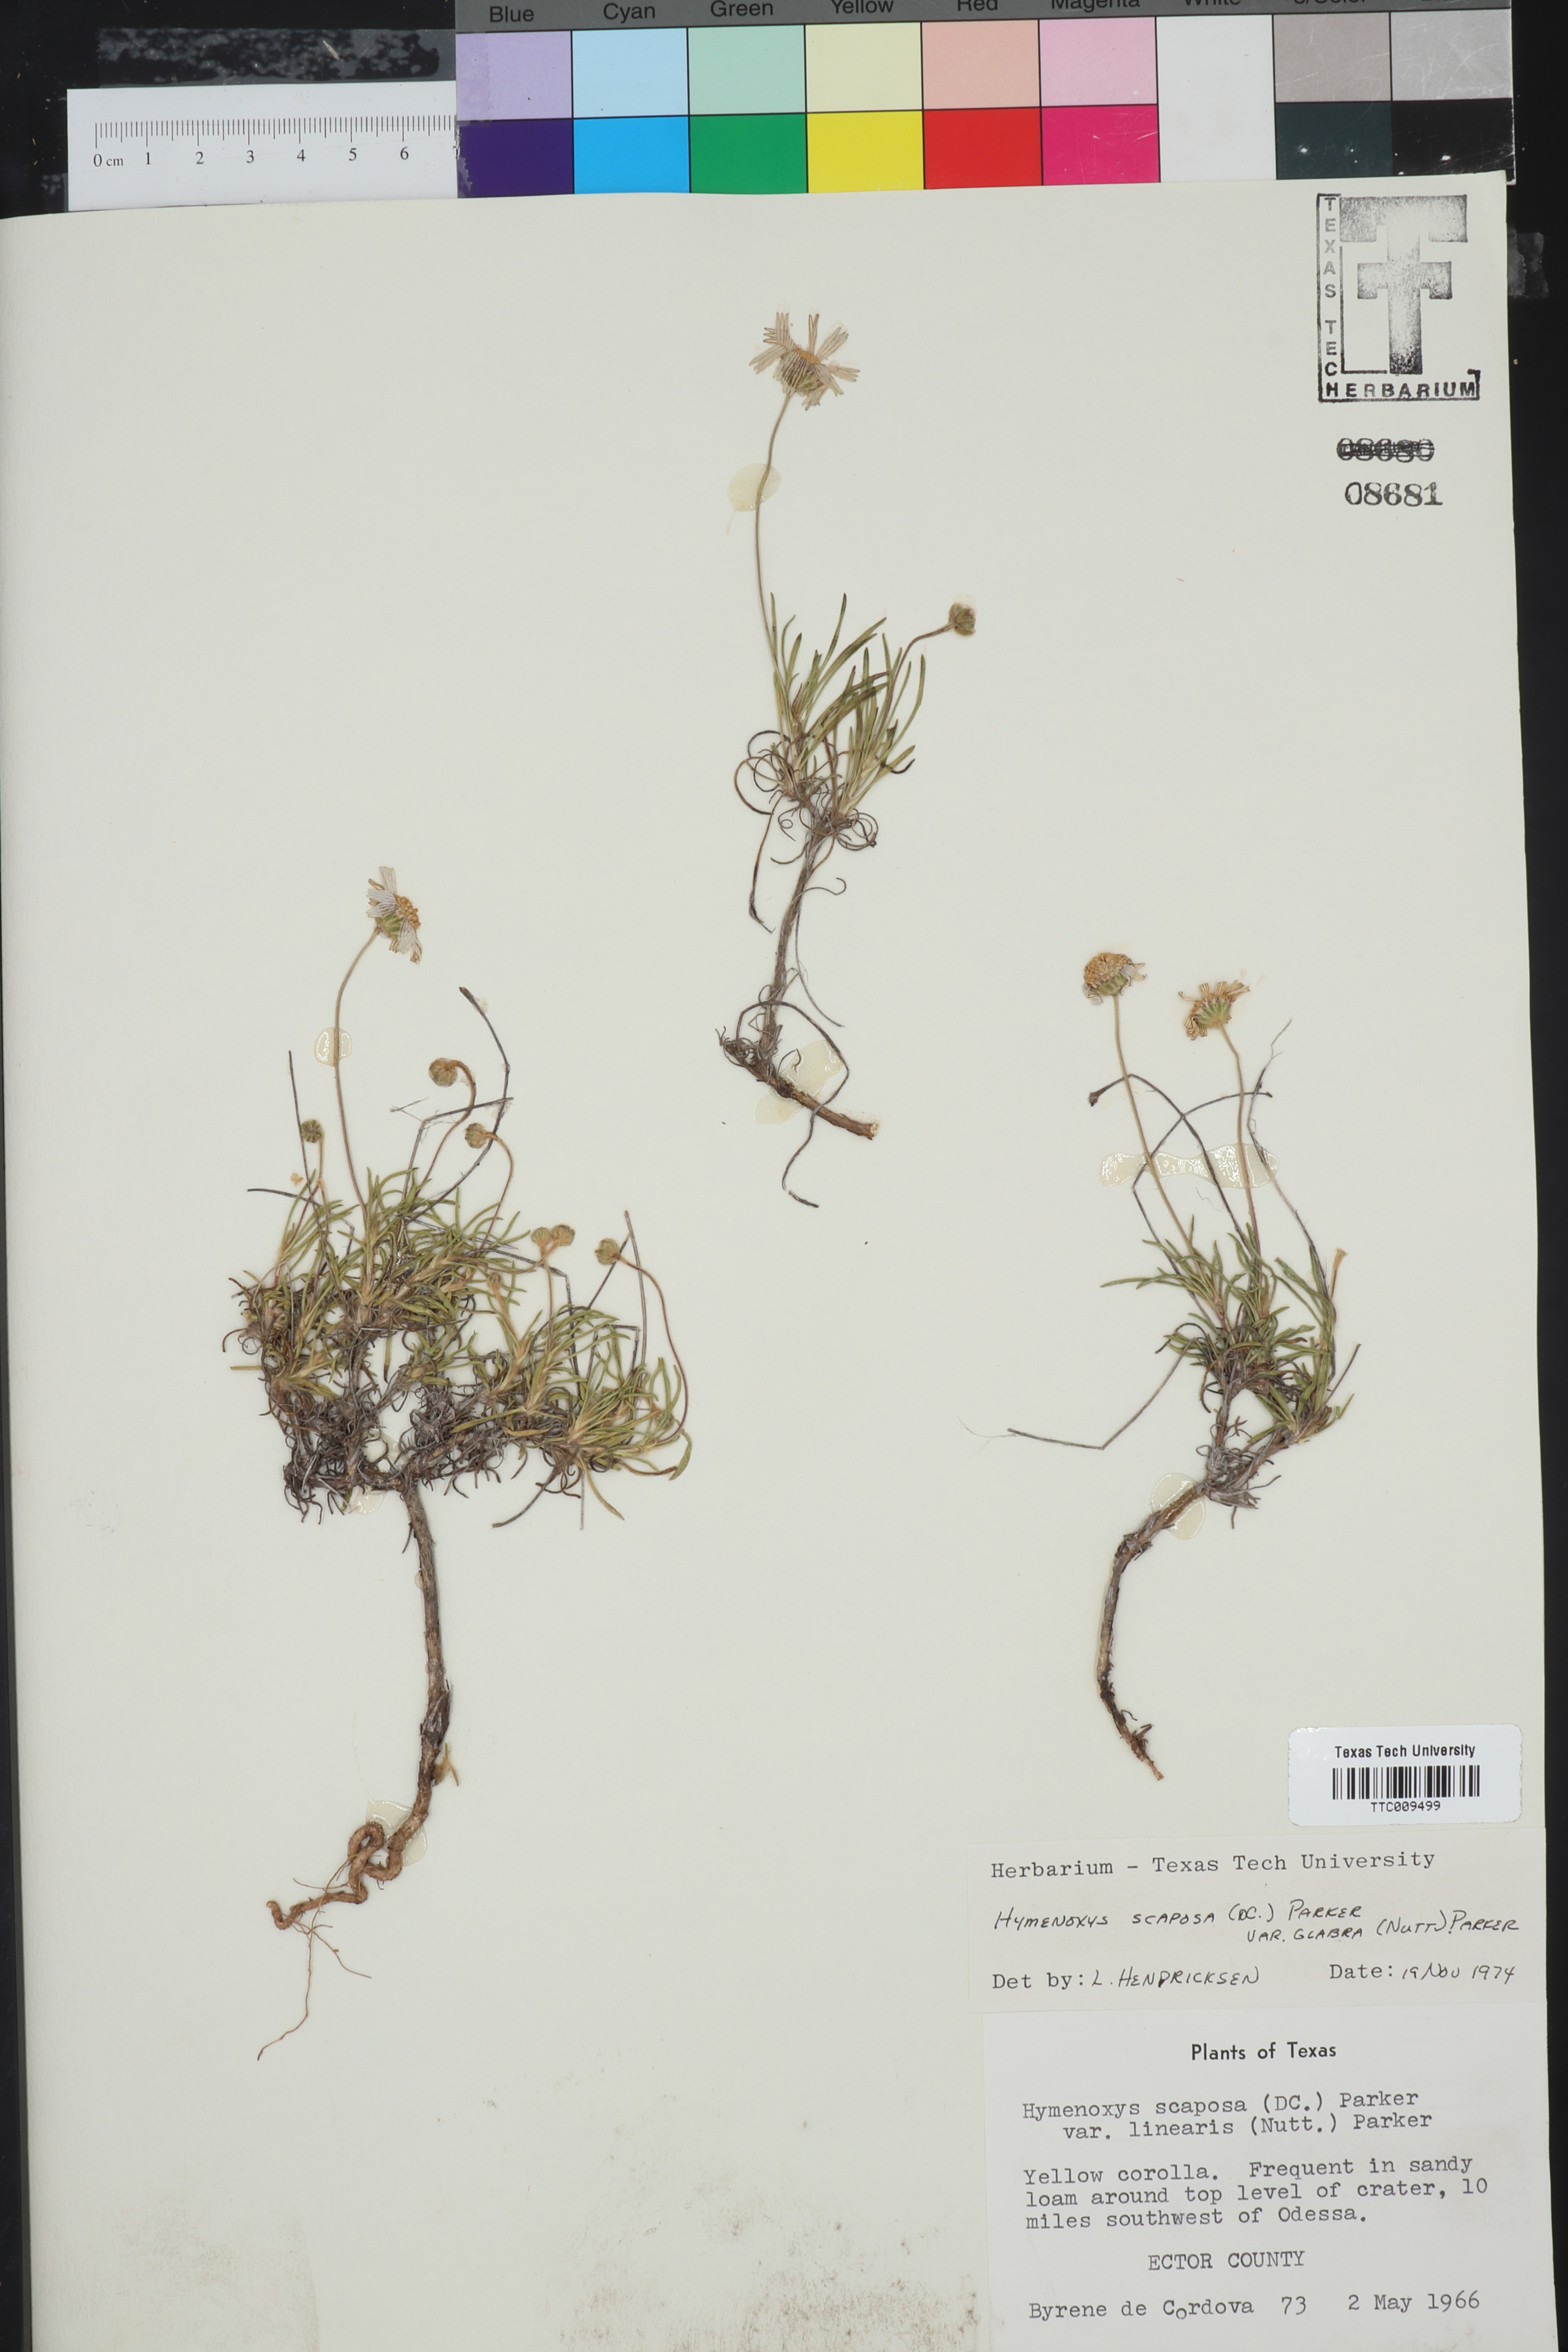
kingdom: Plantae
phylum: Tracheophyta
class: Magnoliopsida
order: Asterales
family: Asteraceae
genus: Tetraneuris
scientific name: Tetraneuris scaposa
